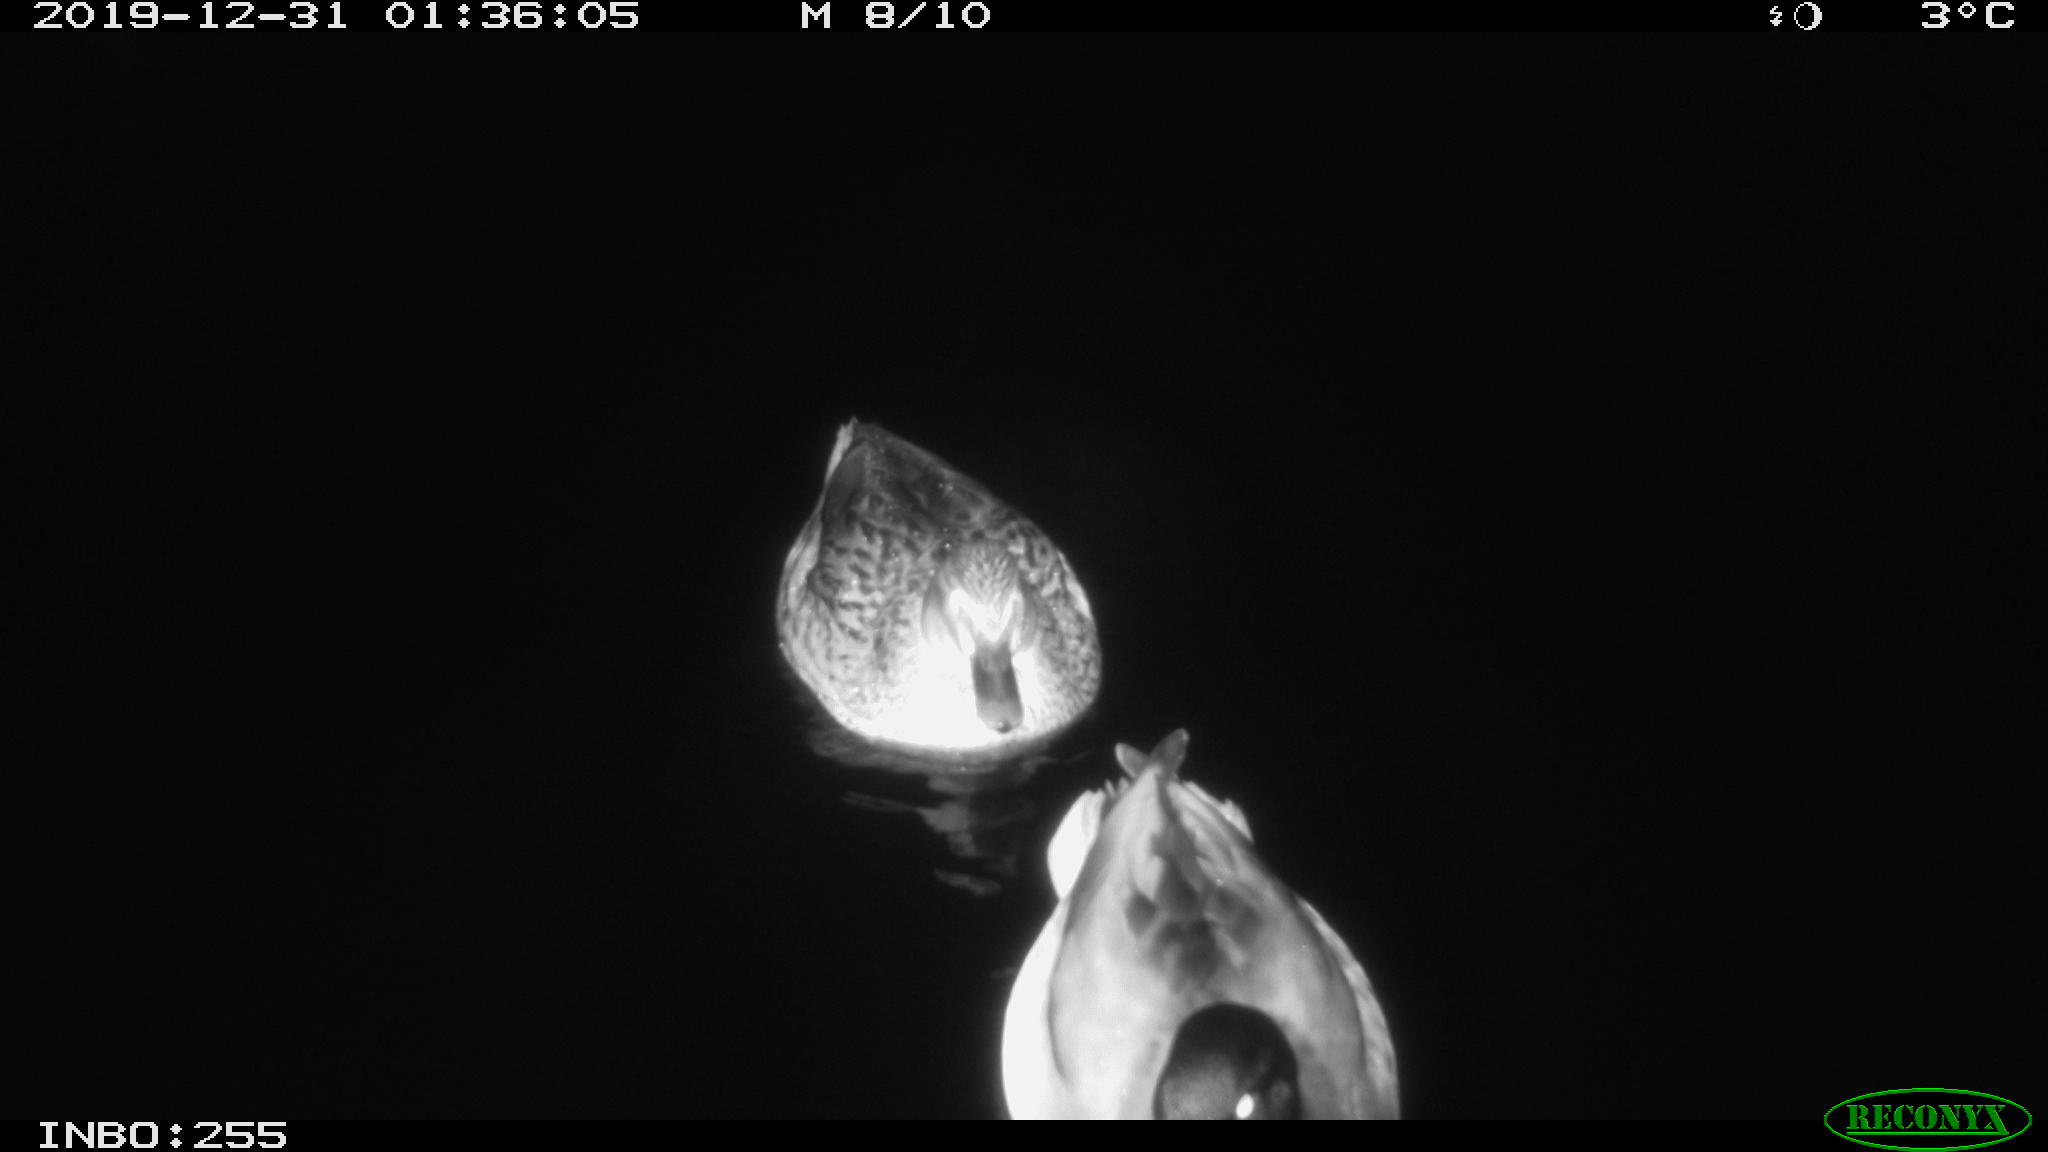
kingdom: Animalia
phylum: Chordata
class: Aves
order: Anseriformes
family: Anatidae
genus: Anas
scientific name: Anas platyrhynchos
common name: Mallard
